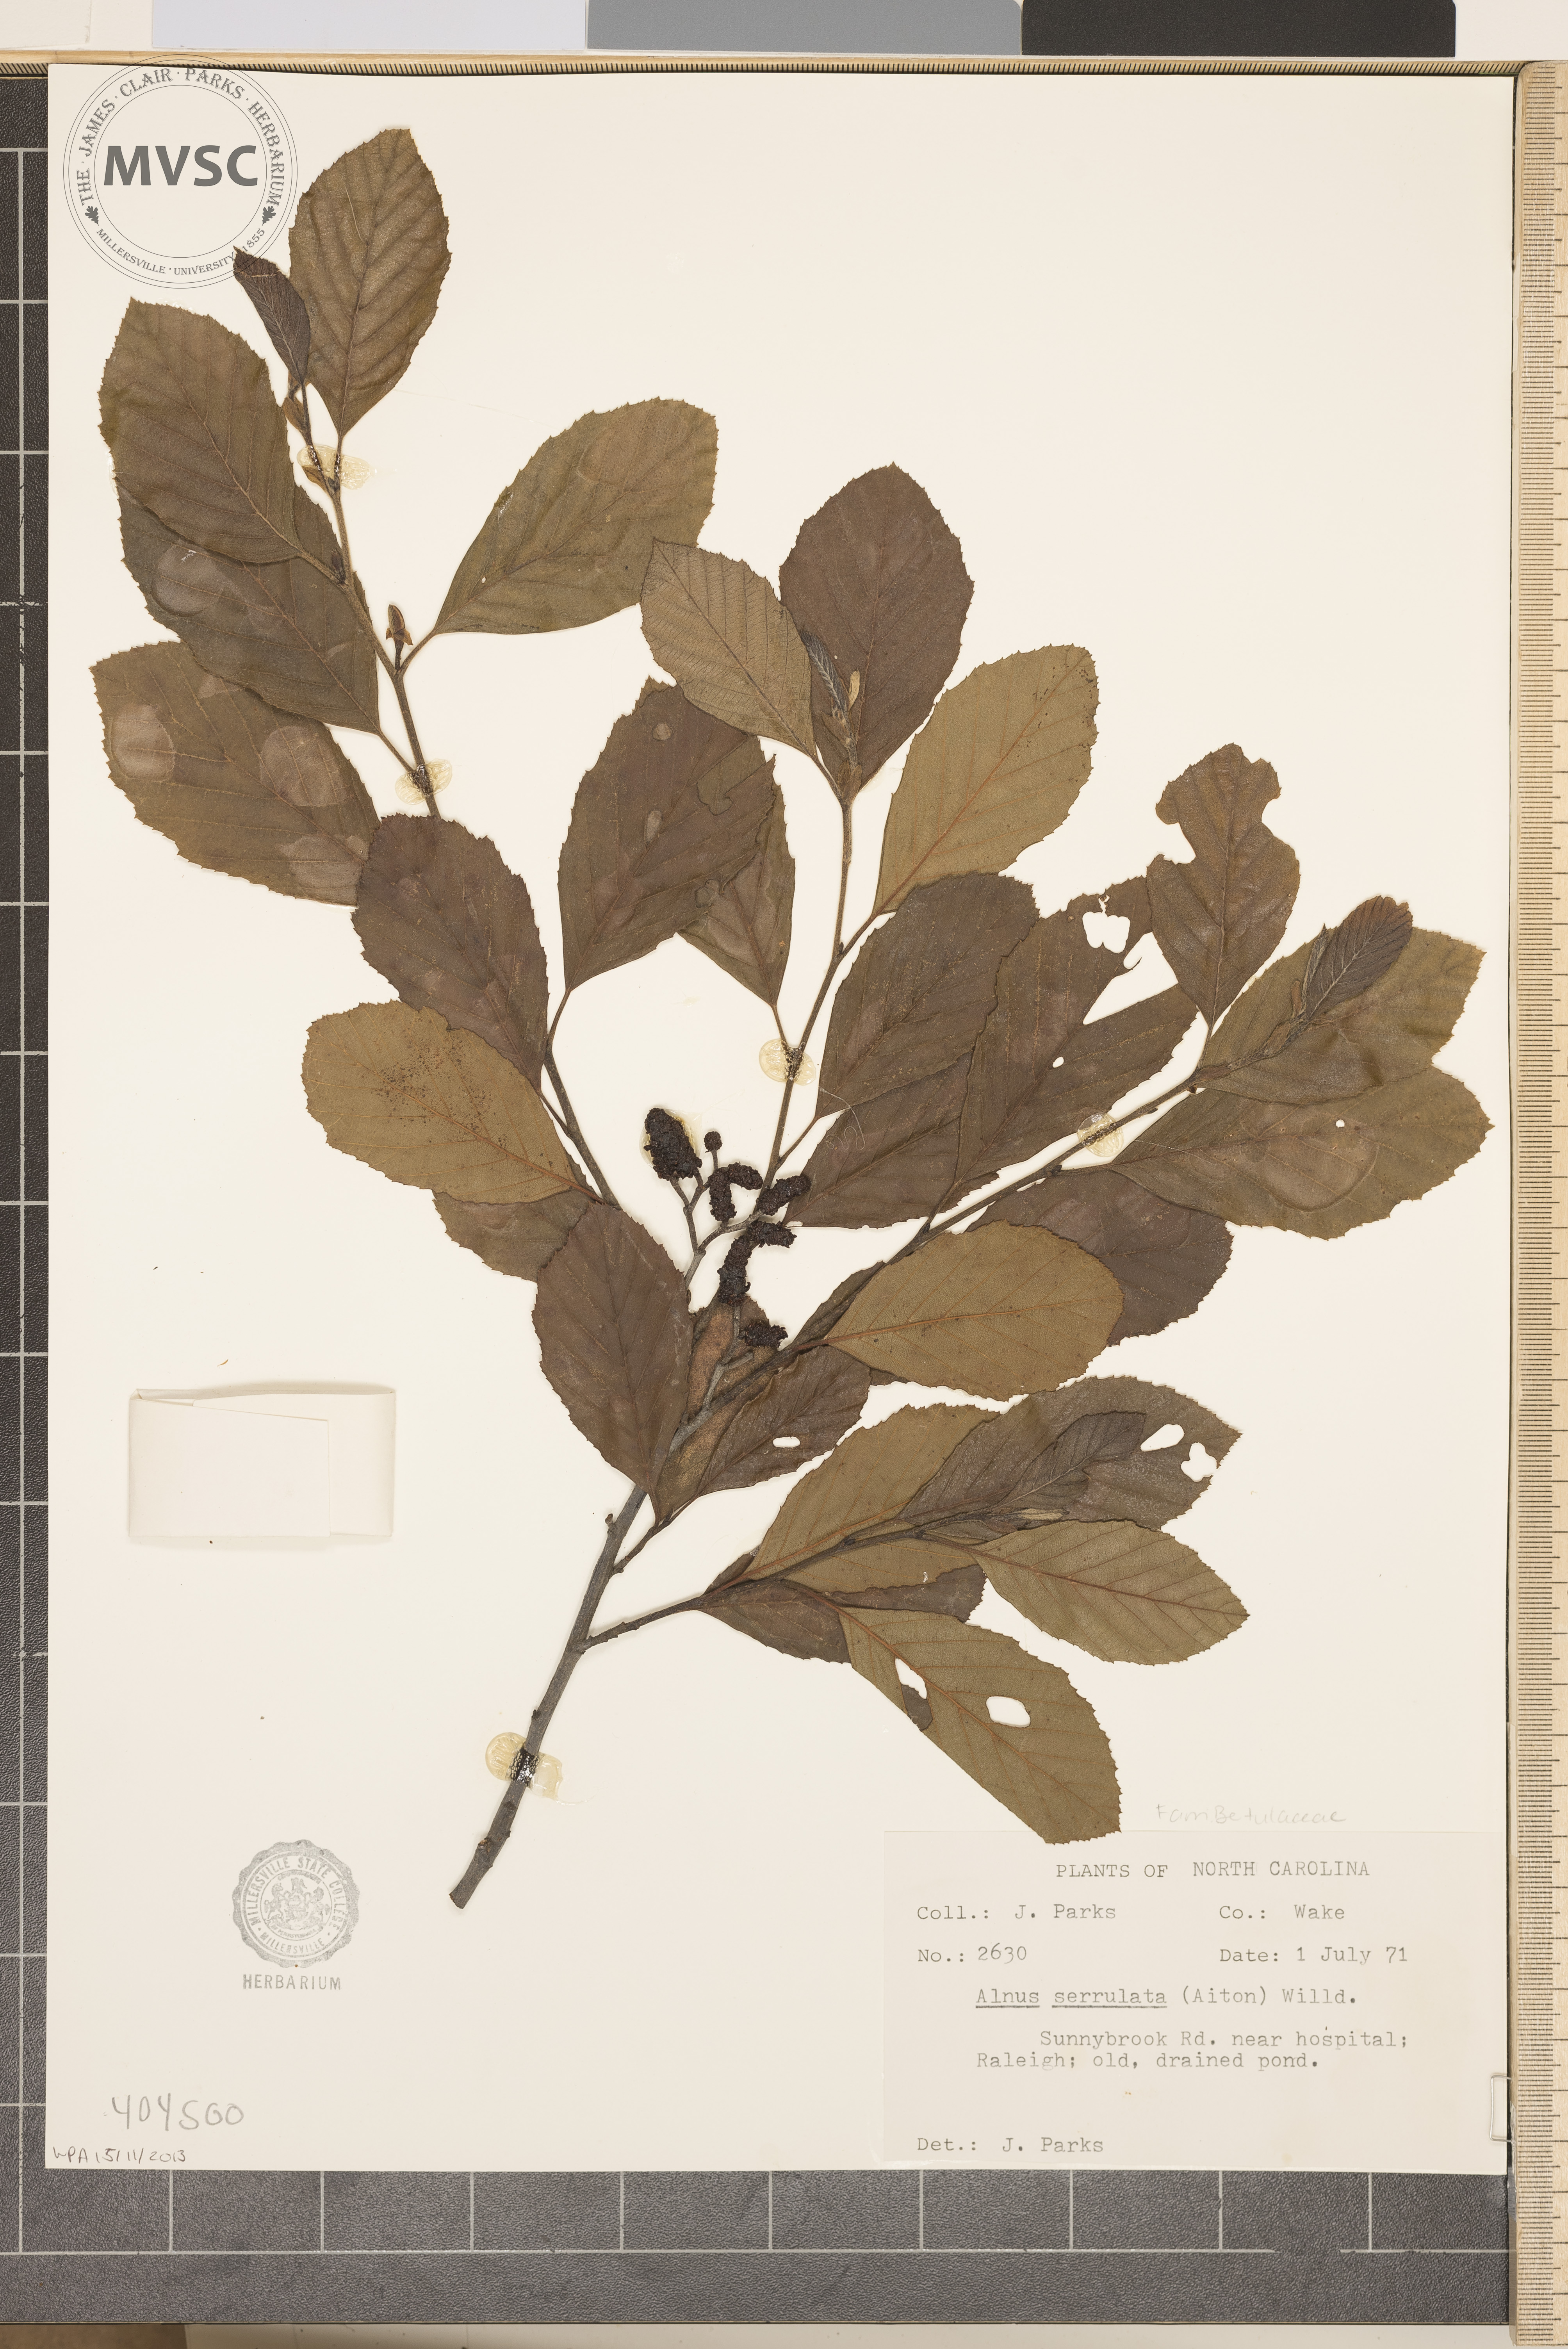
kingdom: Plantae
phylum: Tracheophyta
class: Magnoliopsida
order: Fagales
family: Betulaceae
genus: Alnus
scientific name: Alnus serrulata
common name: Hazel alder
